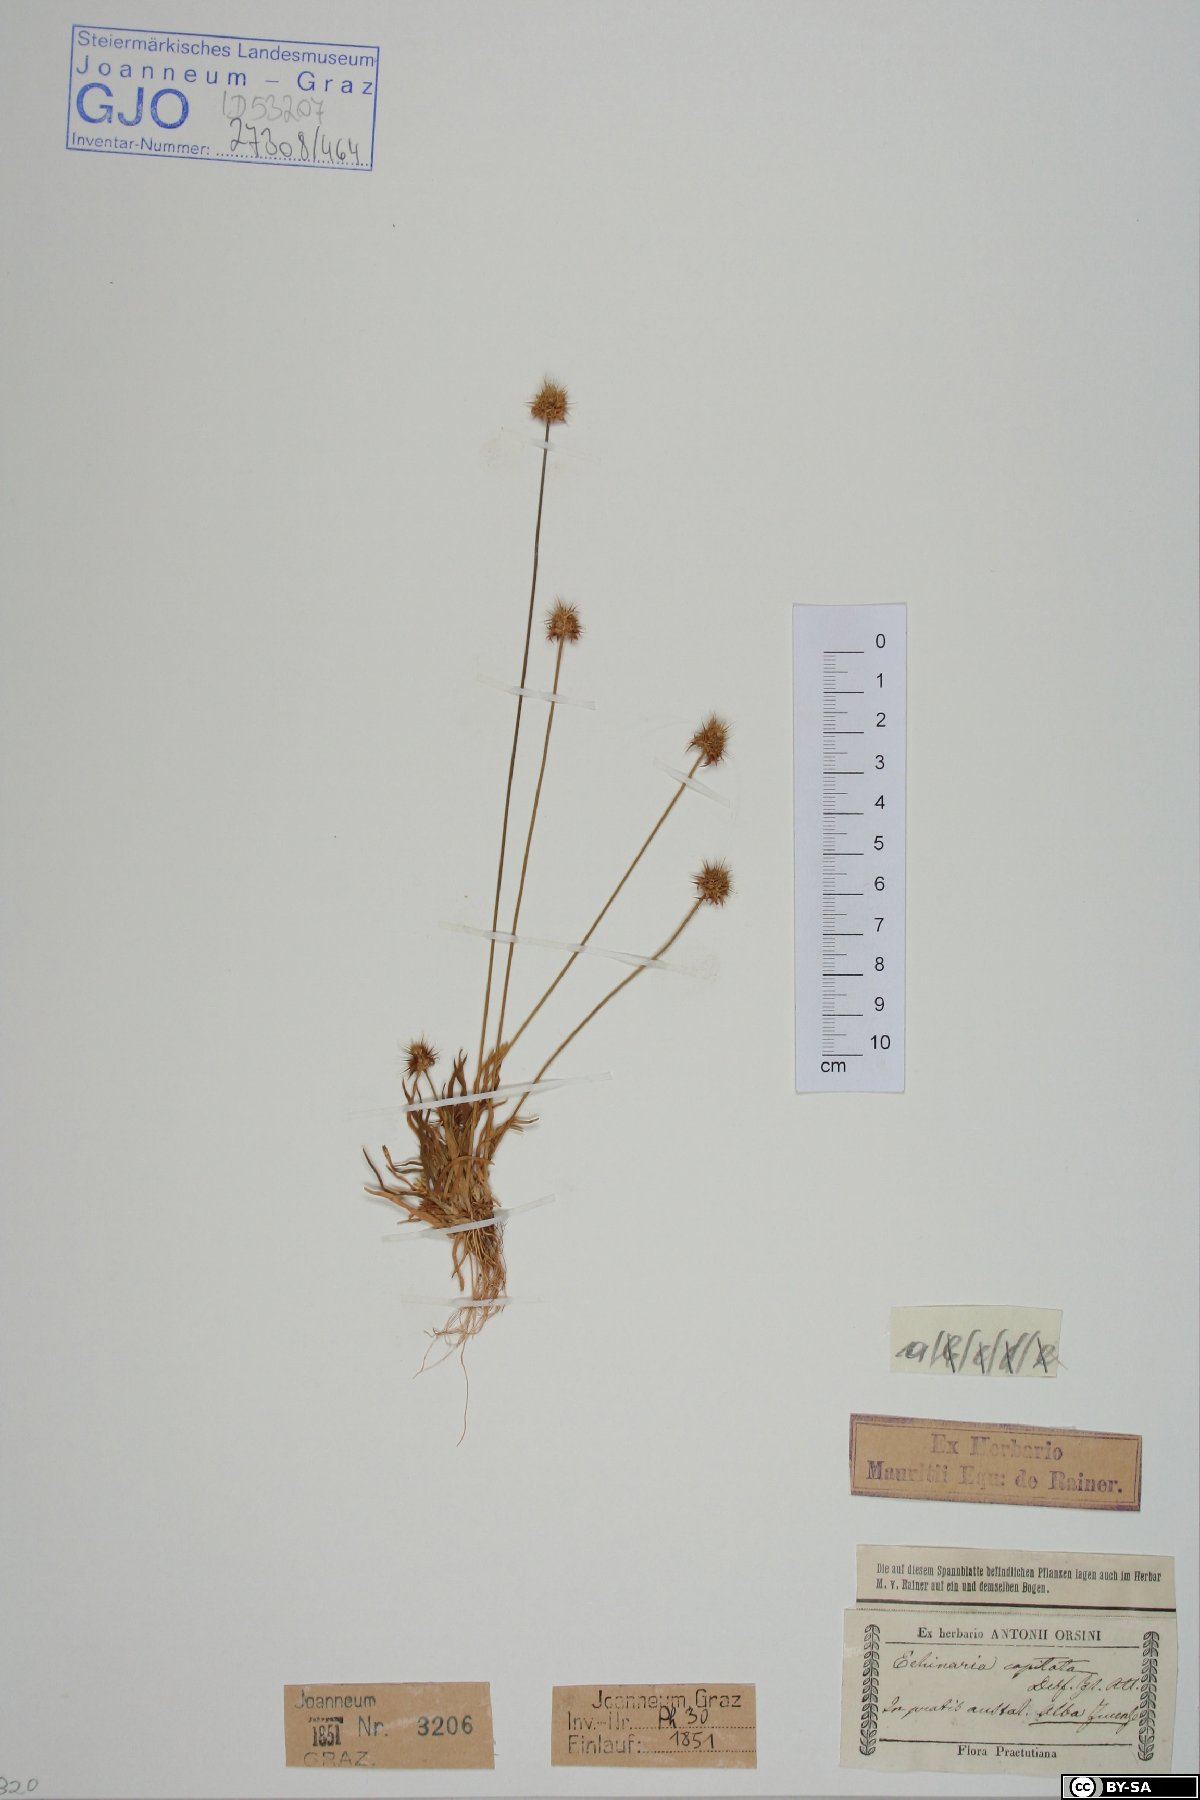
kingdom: Plantae
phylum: Tracheophyta
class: Liliopsida
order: Poales
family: Poaceae
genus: Echinaria
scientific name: Echinaria capitata
